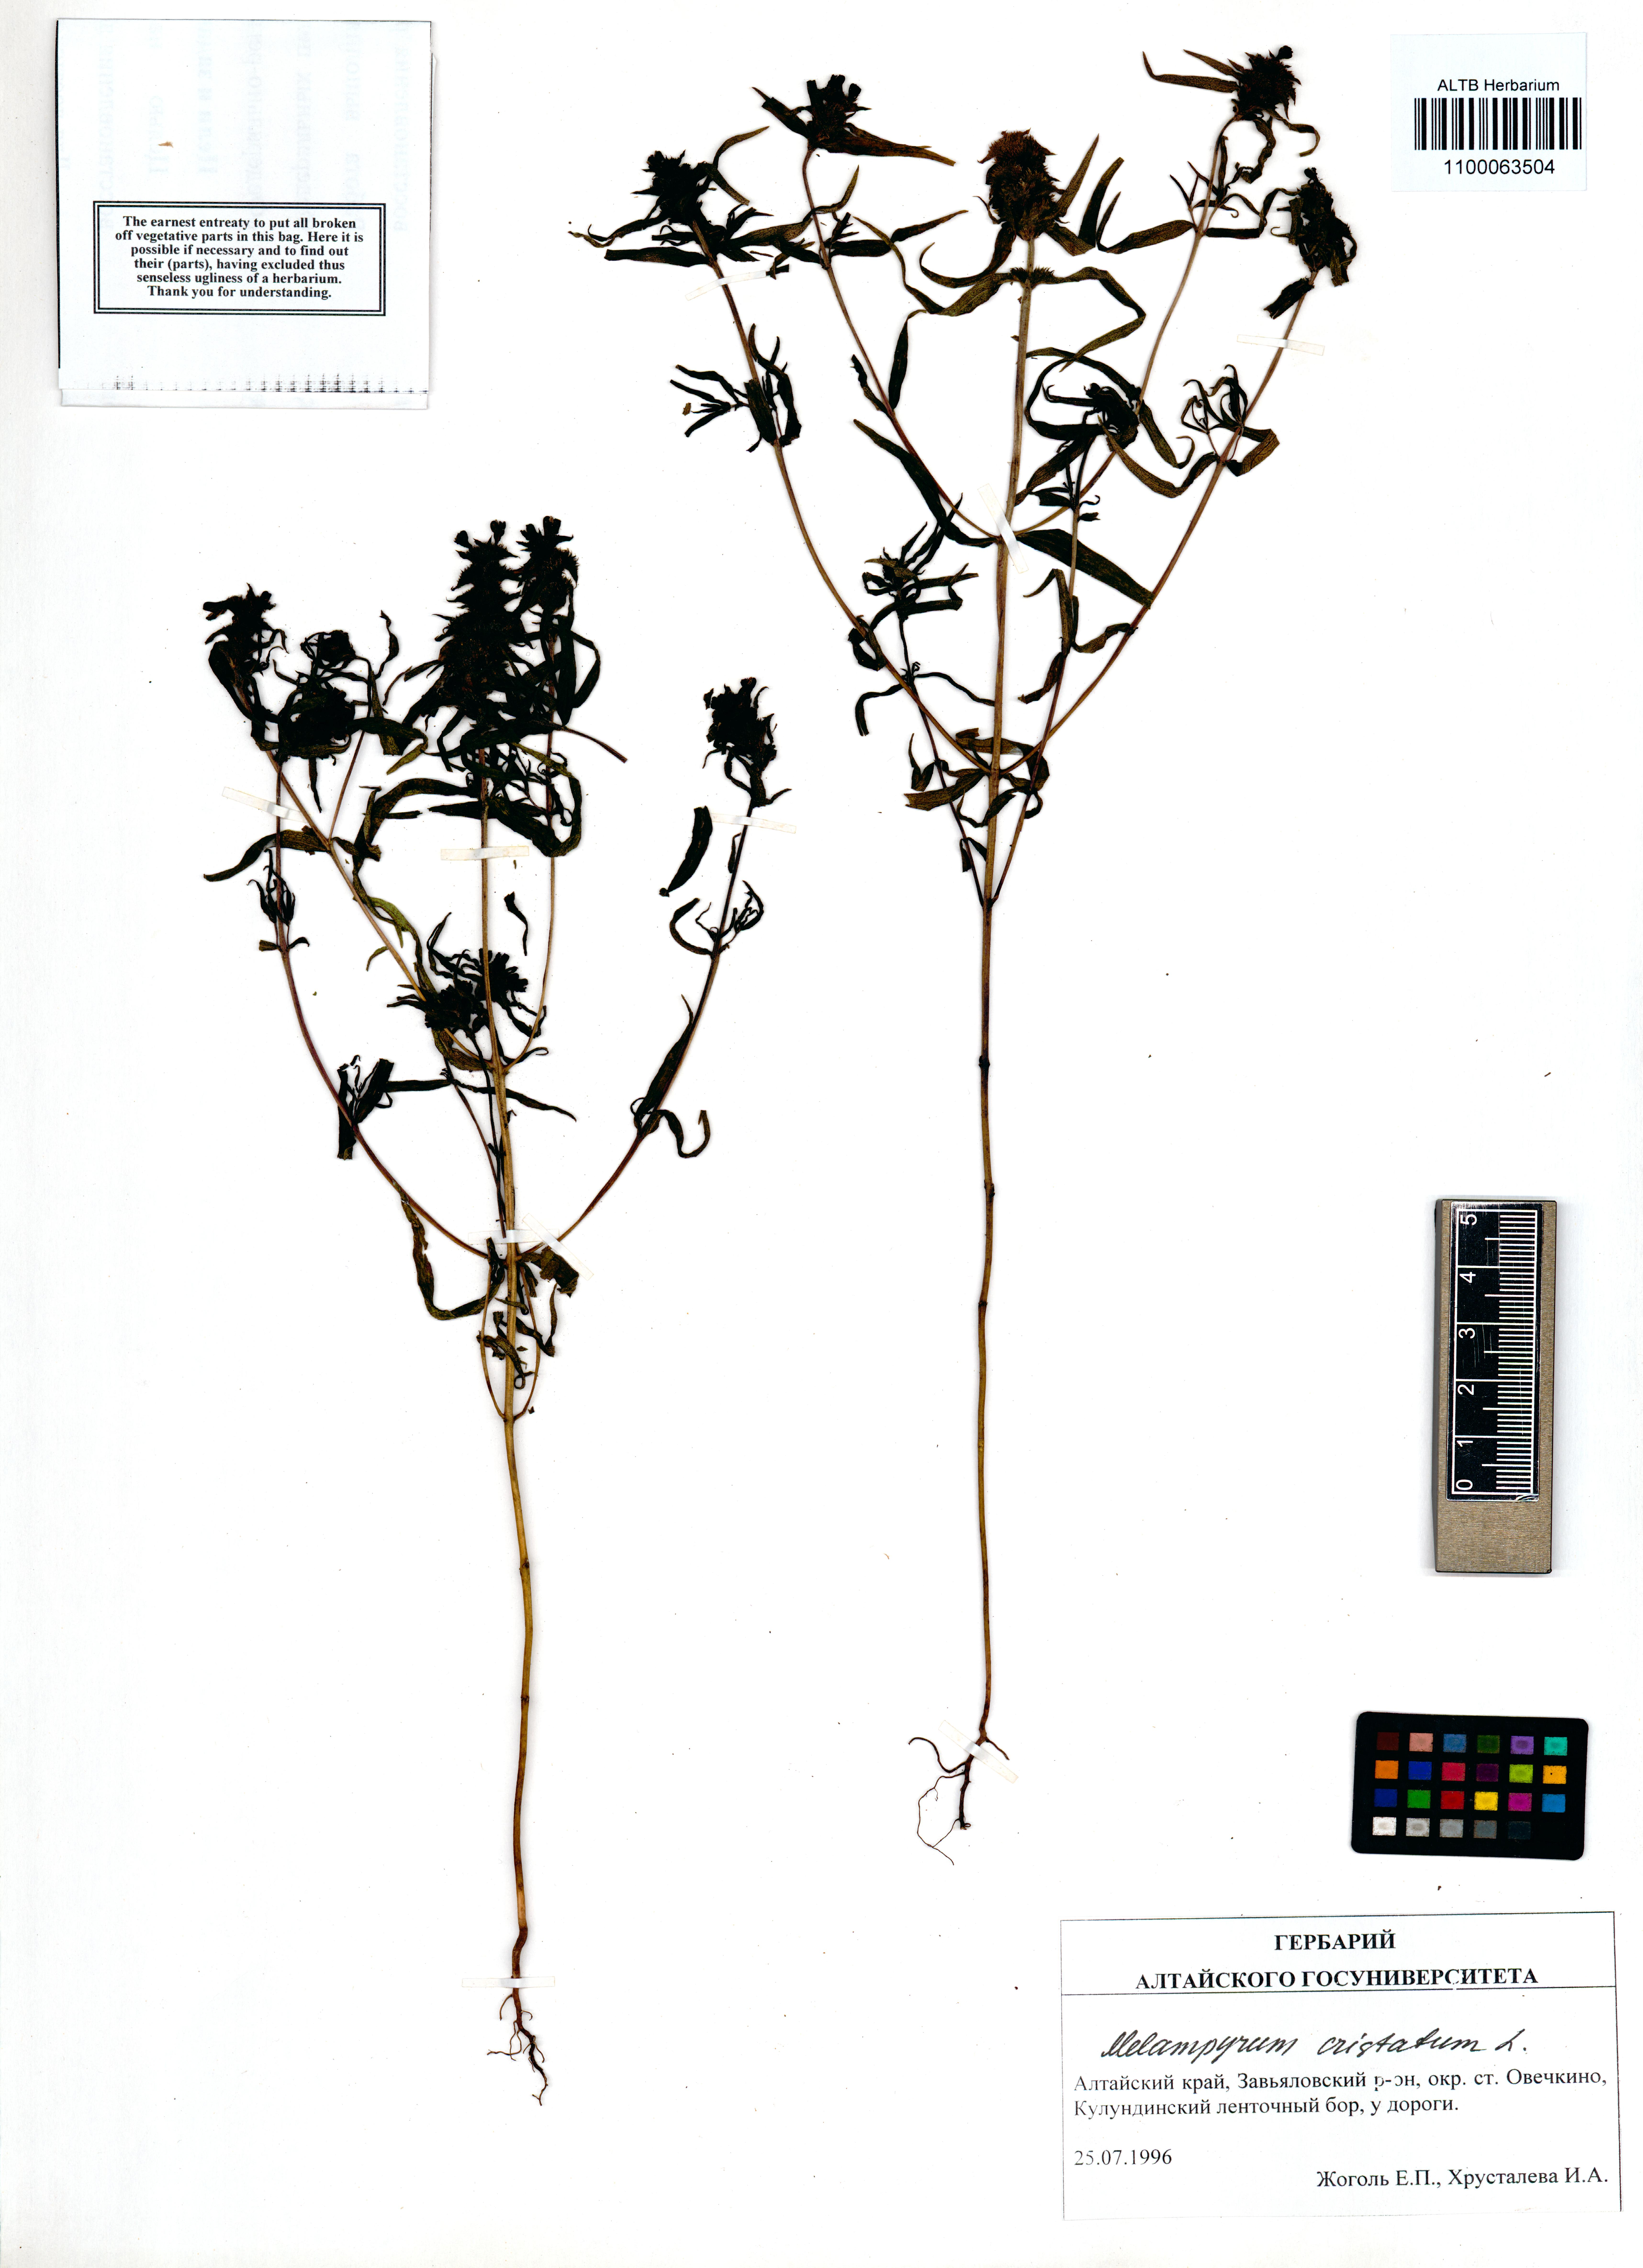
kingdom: Plantae
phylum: Tracheophyta
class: Magnoliopsida
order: Lamiales
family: Orobanchaceae
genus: Melampyrum
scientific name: Melampyrum cristatum
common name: Crested cow-wheat
